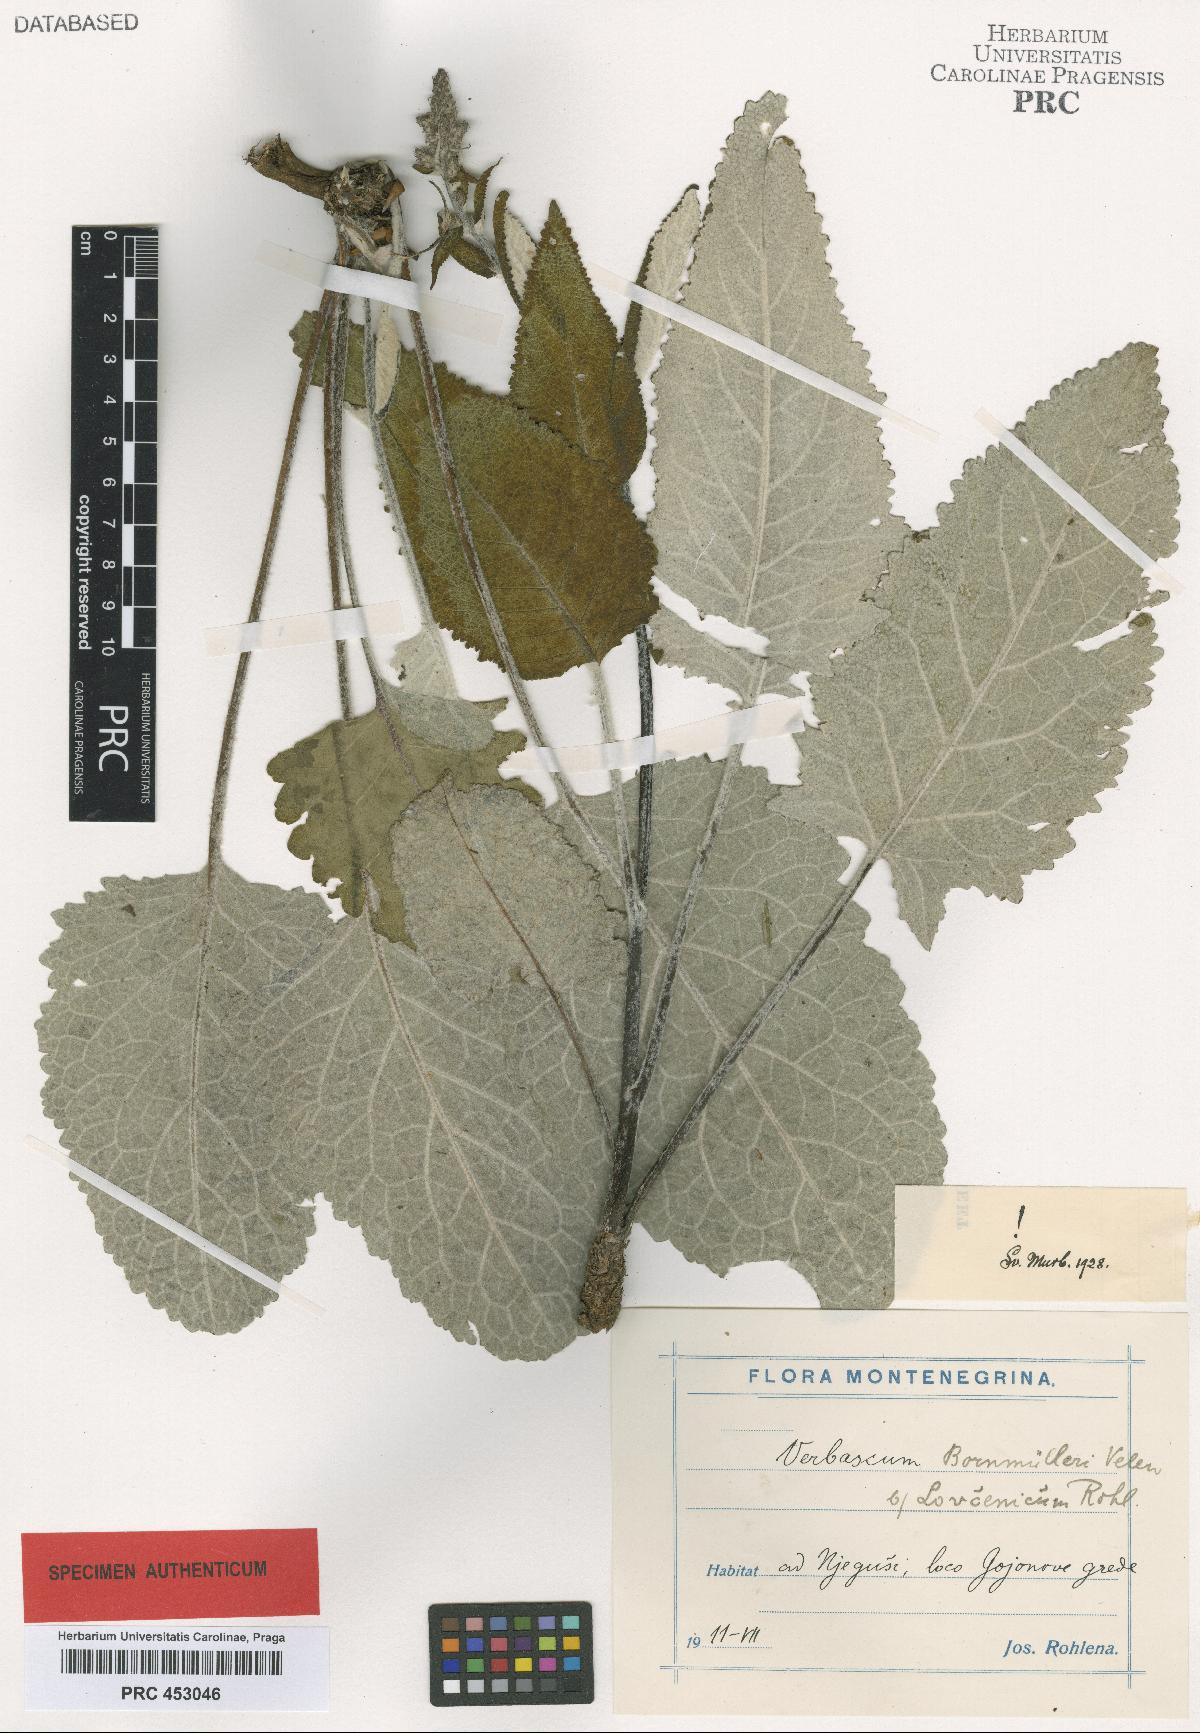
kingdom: Plantae
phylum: Tracheophyta
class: Magnoliopsida
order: Lamiales
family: Scrophulariaceae
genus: Verbascum
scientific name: Verbascum nigrum
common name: Dark mullein
